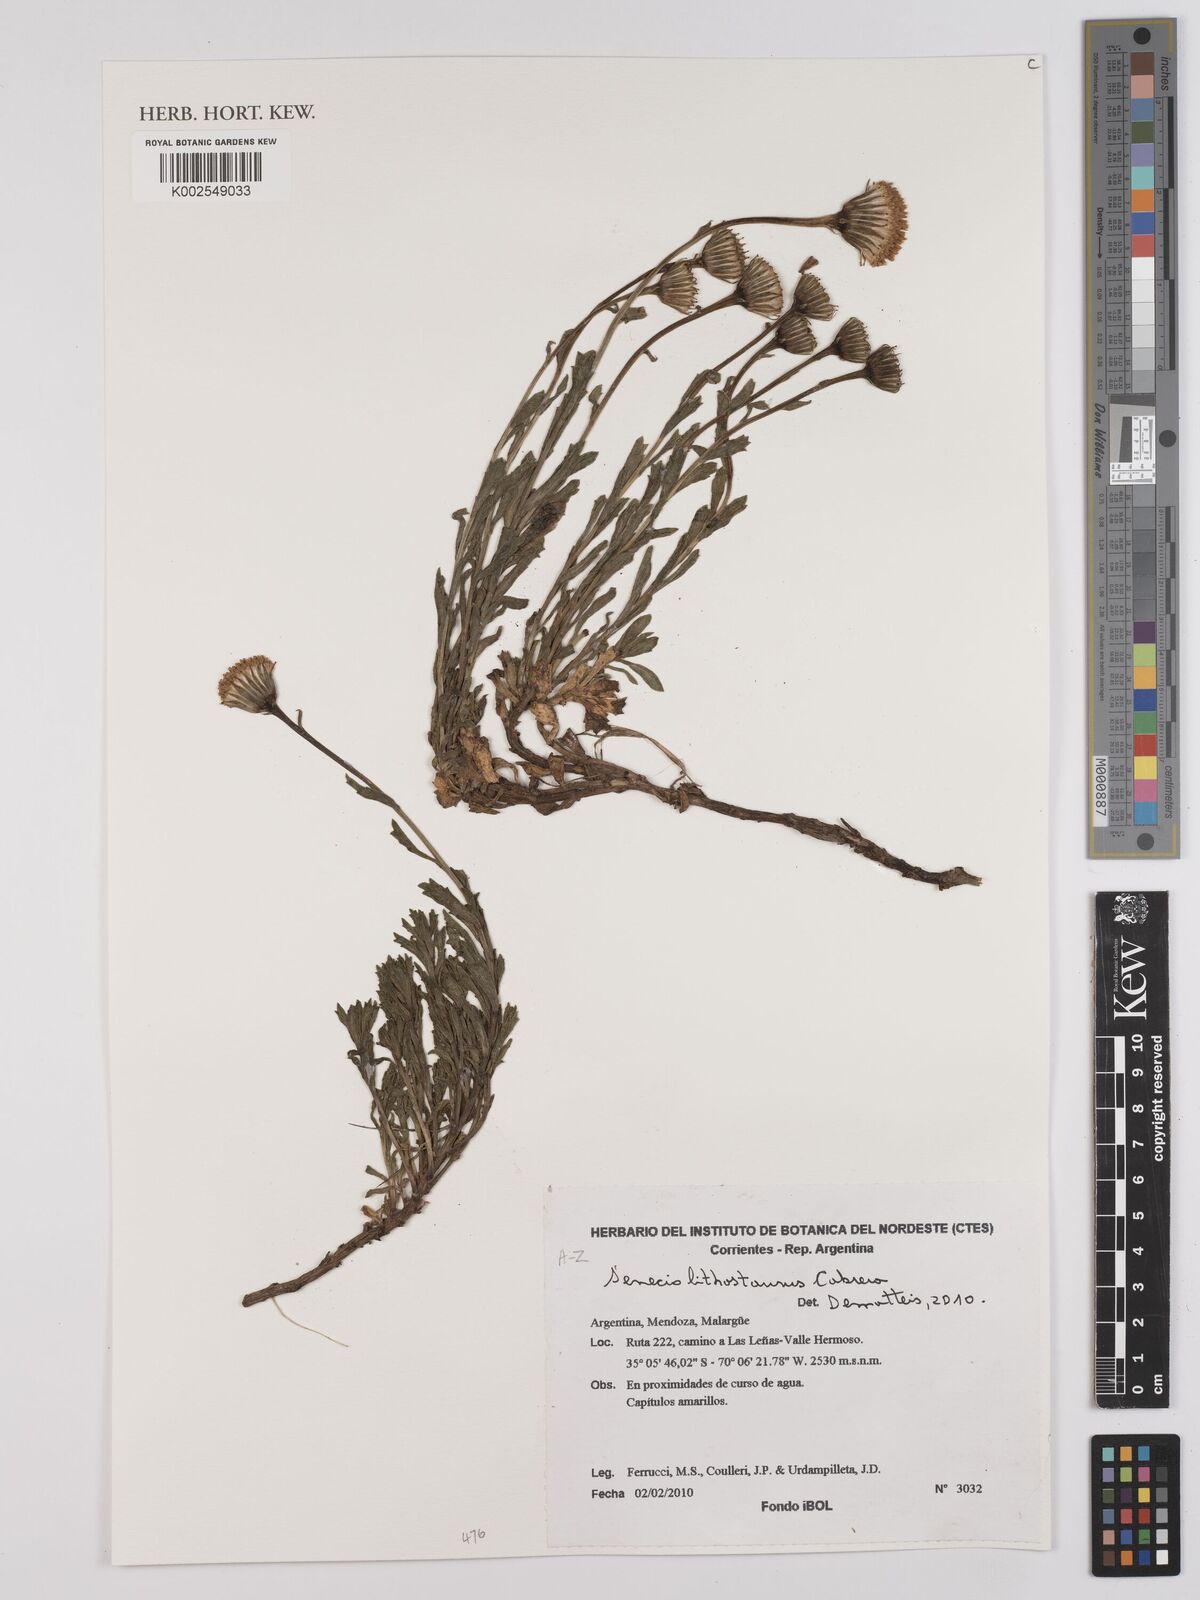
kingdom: Plantae
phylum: Tracheophyta
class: Magnoliopsida
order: Asterales
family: Asteraceae
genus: Senecio
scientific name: Senecio lithostaurus
